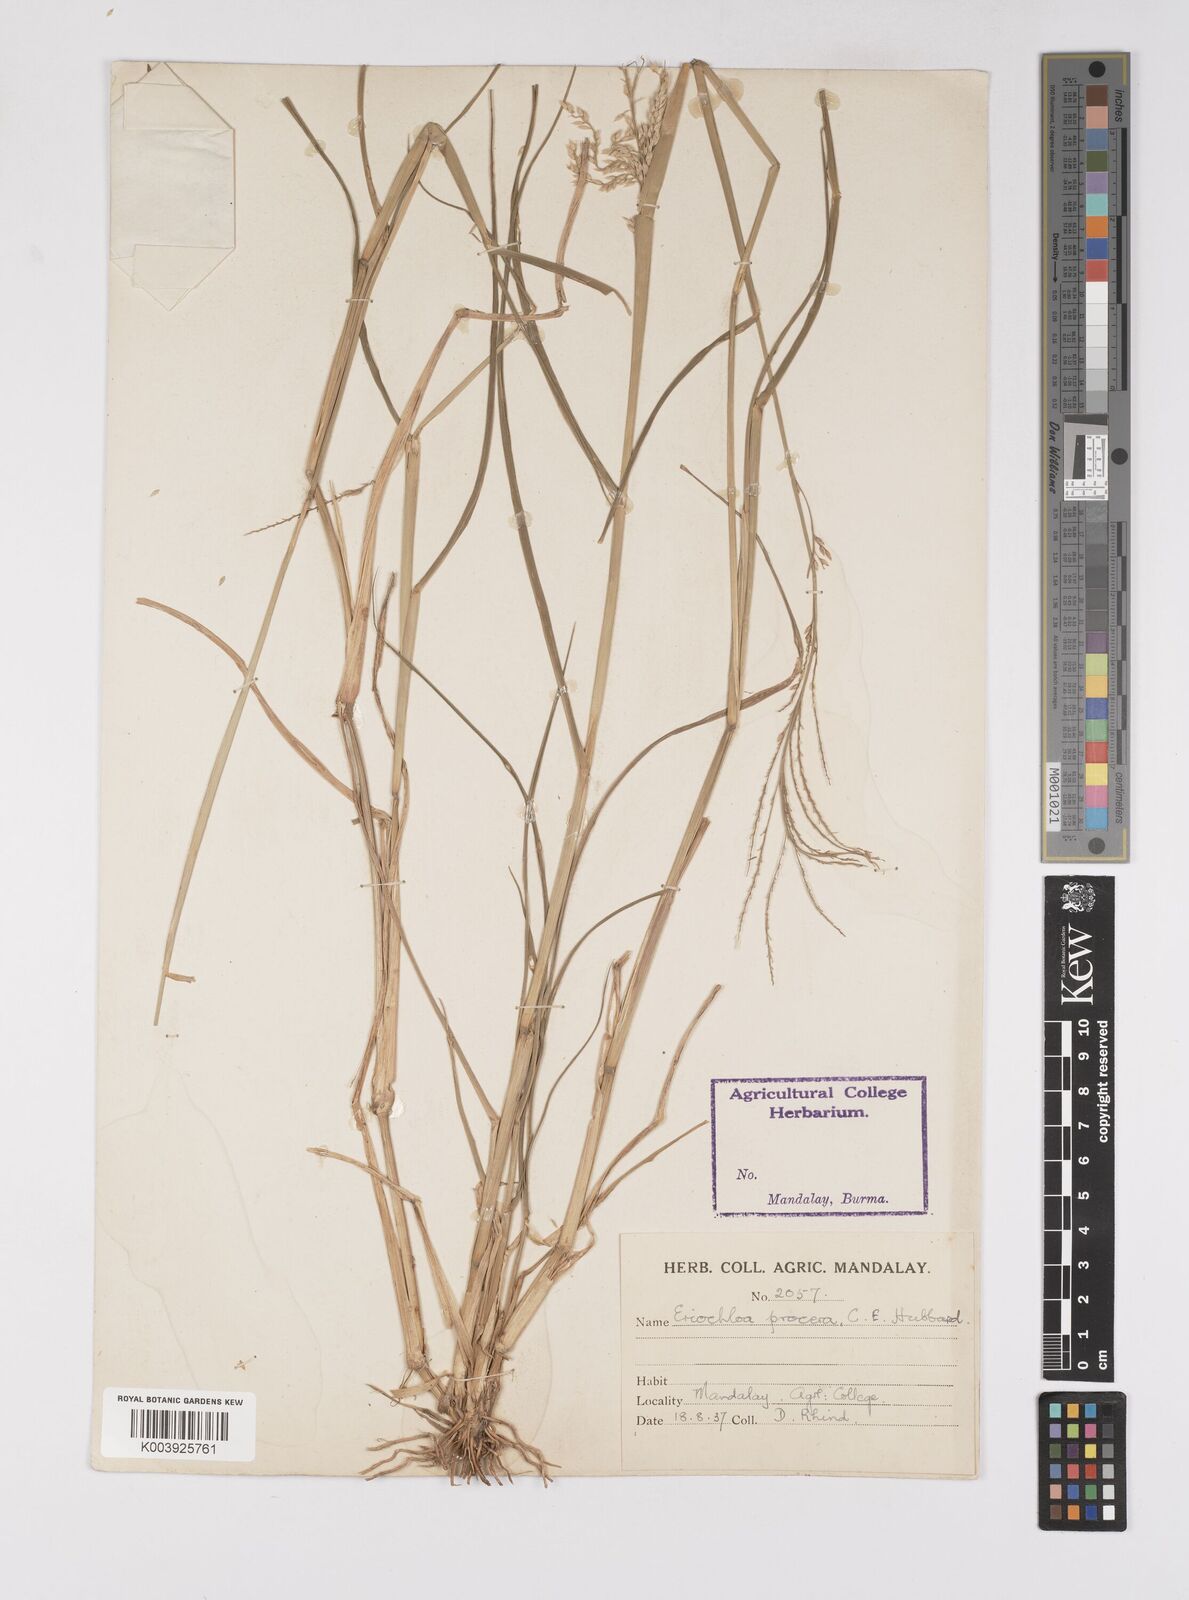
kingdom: Plantae
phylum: Tracheophyta
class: Liliopsida
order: Poales
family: Poaceae
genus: Eriochloa
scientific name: Eriochloa procera
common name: Spring grass
